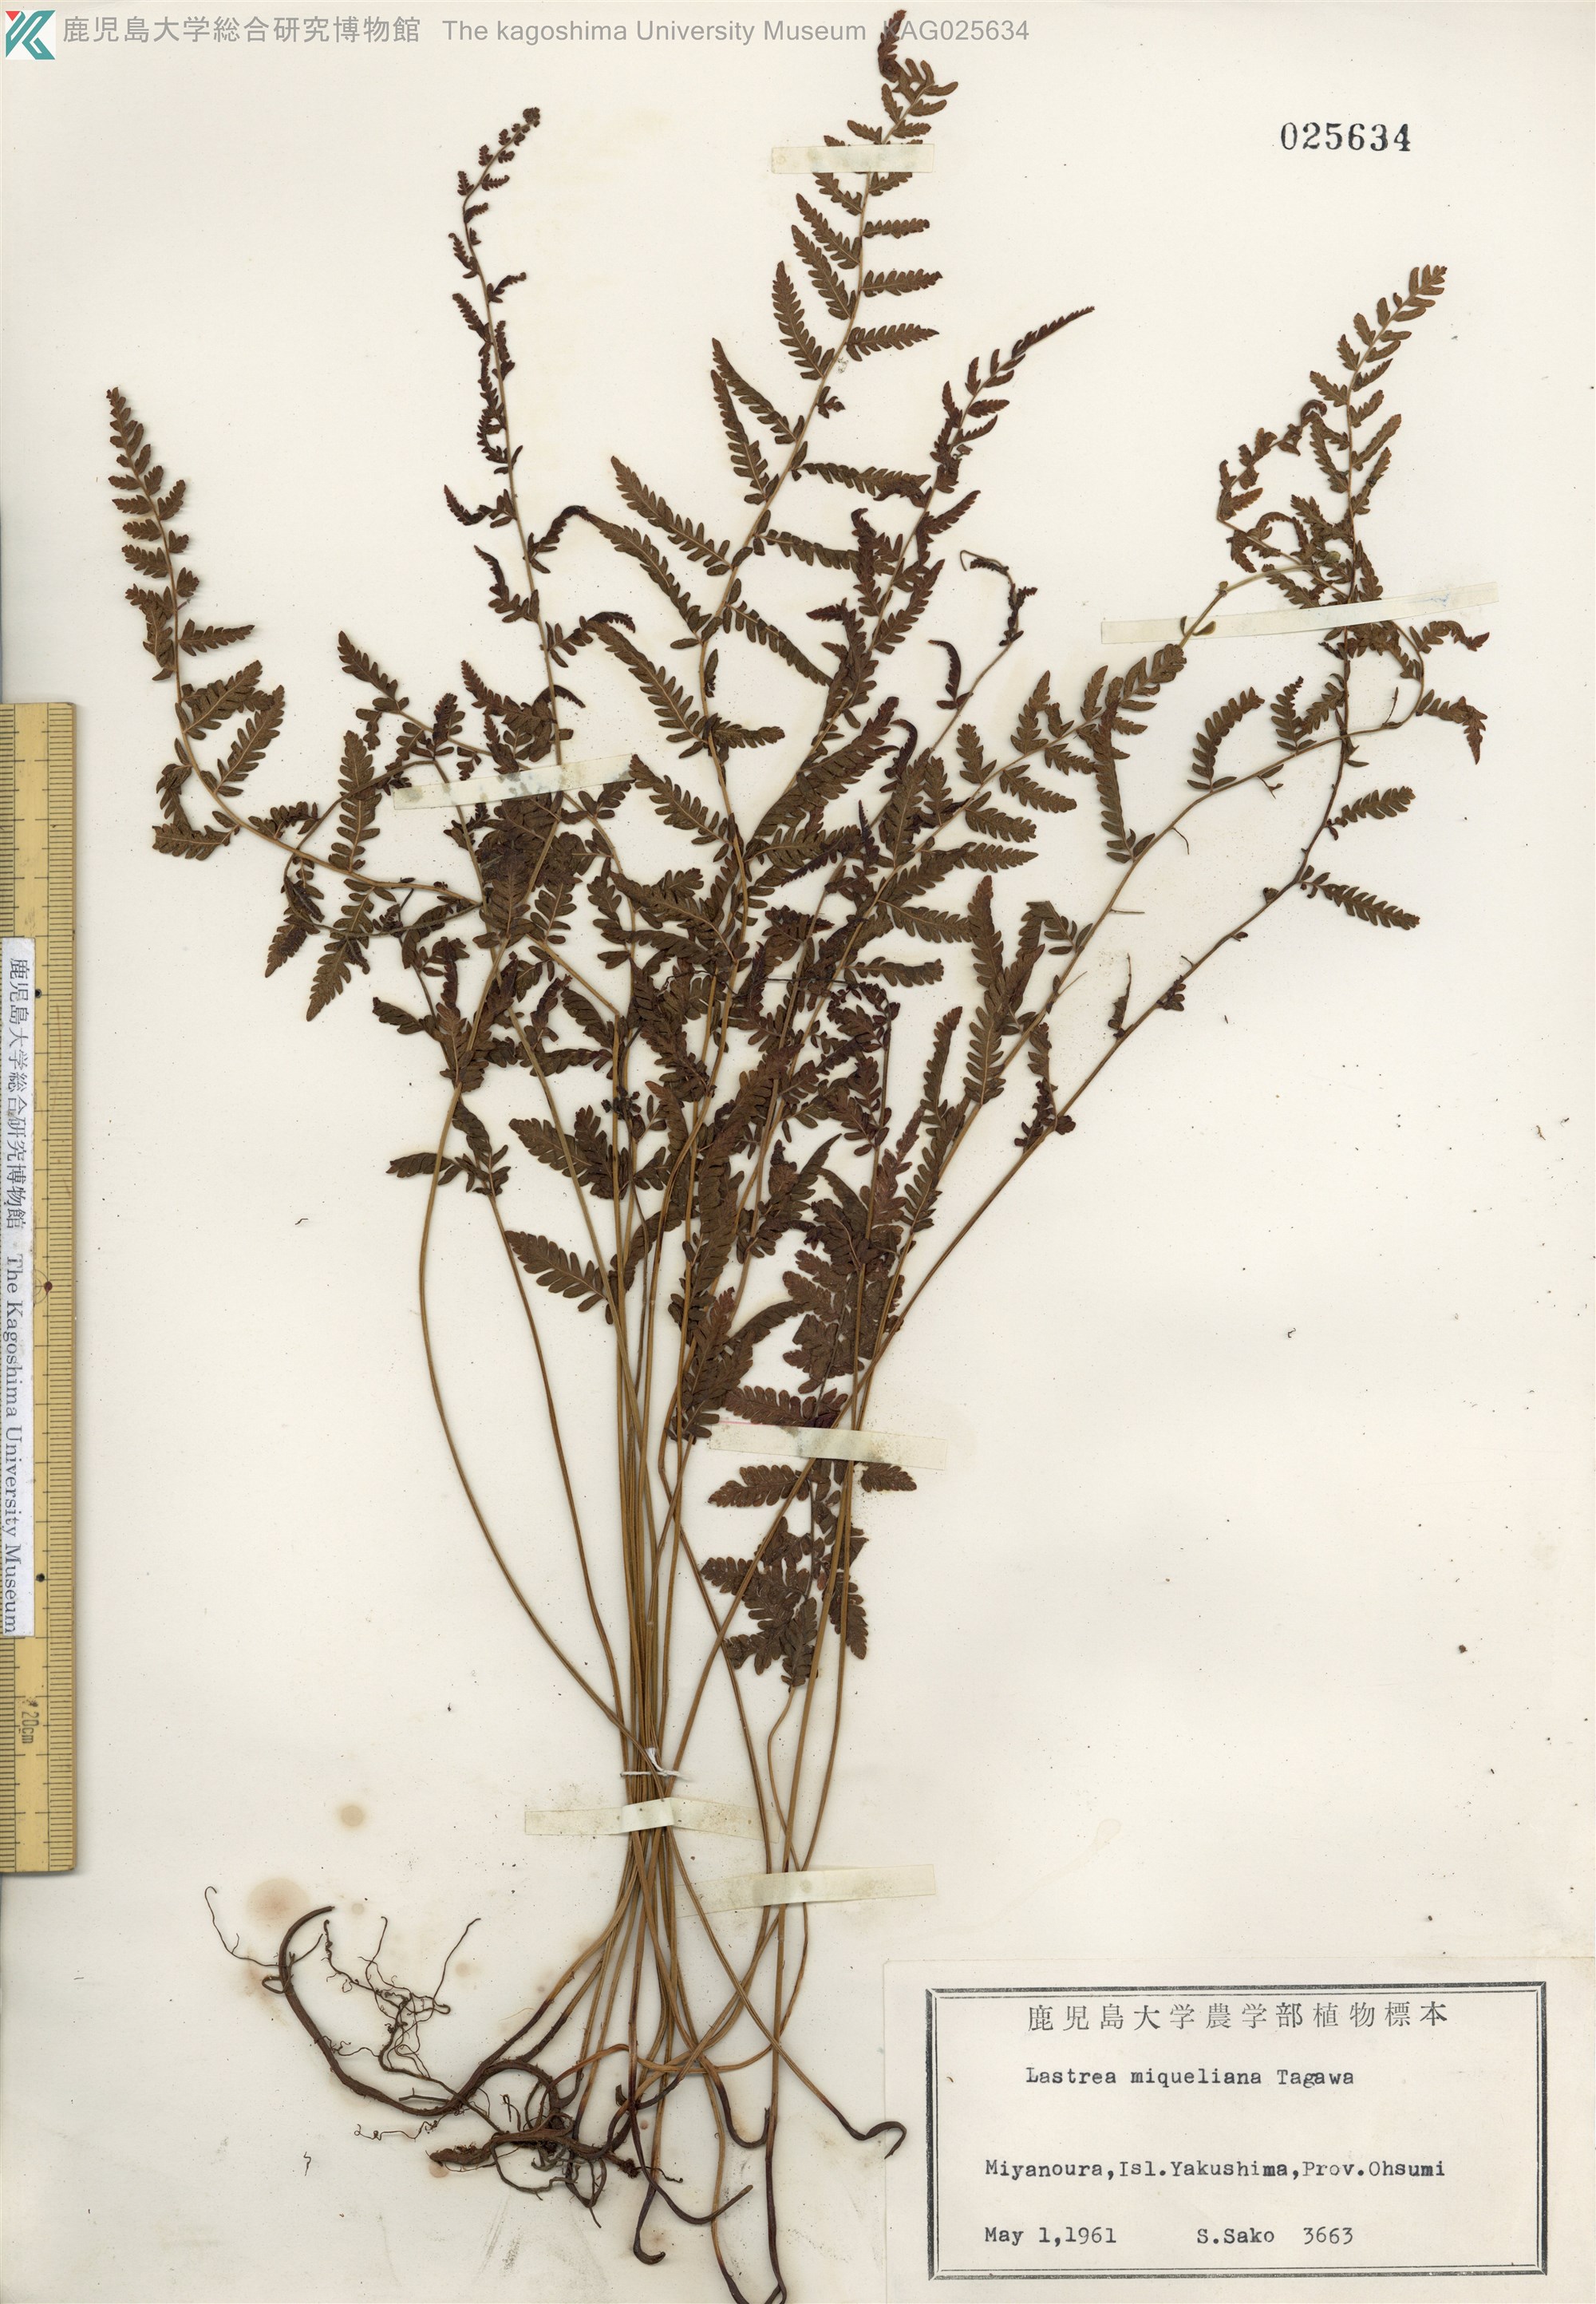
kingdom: Plantae
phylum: Tracheophyta
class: Polypodiopsida
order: Polypodiales
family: Thelypteridaceae
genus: Amauropelta
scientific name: Amauropelta angustifrons
